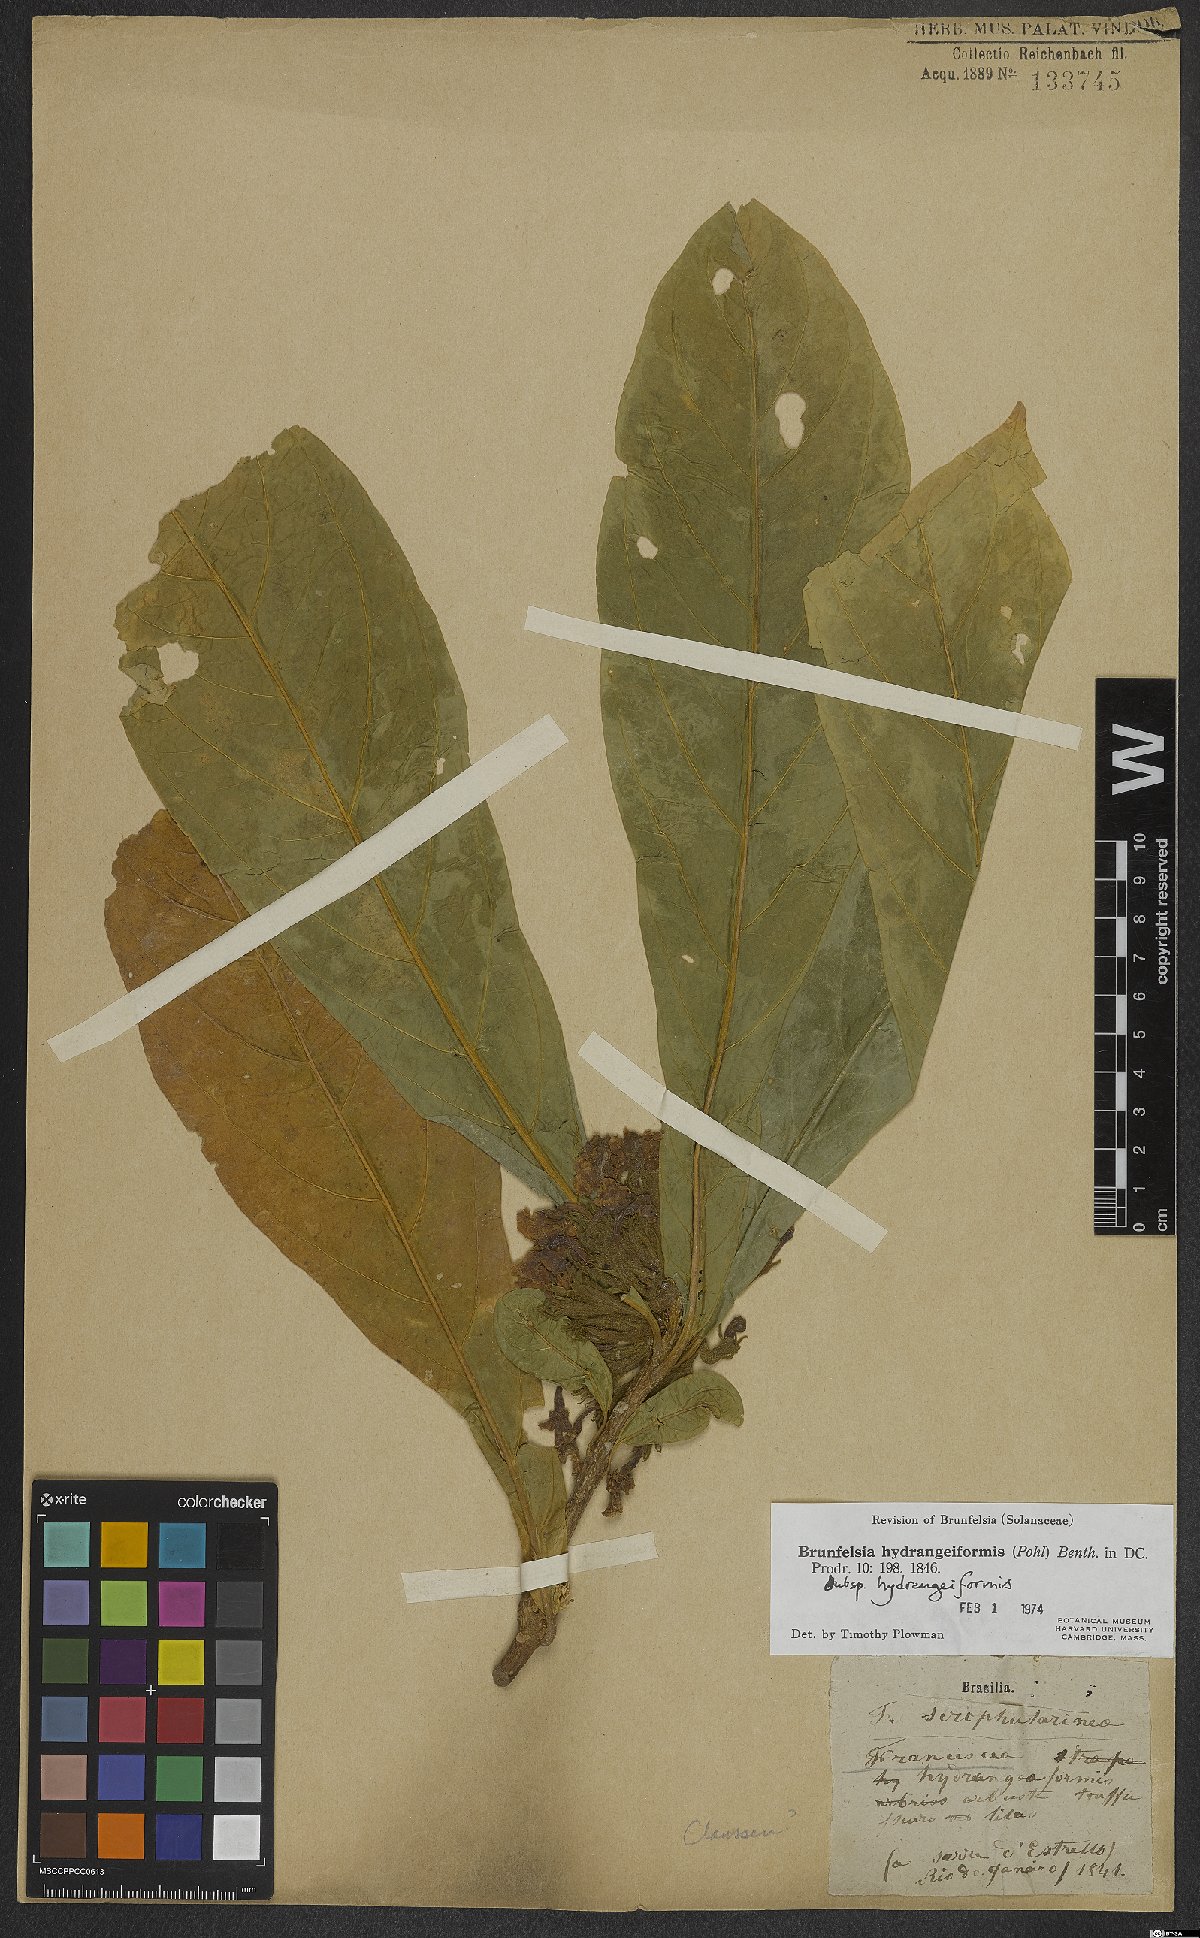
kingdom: Plantae
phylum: Tracheophyta
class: Magnoliopsida
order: Solanales
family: Solanaceae
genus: Brunfelsia
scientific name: Brunfelsia hydrangeiformis
